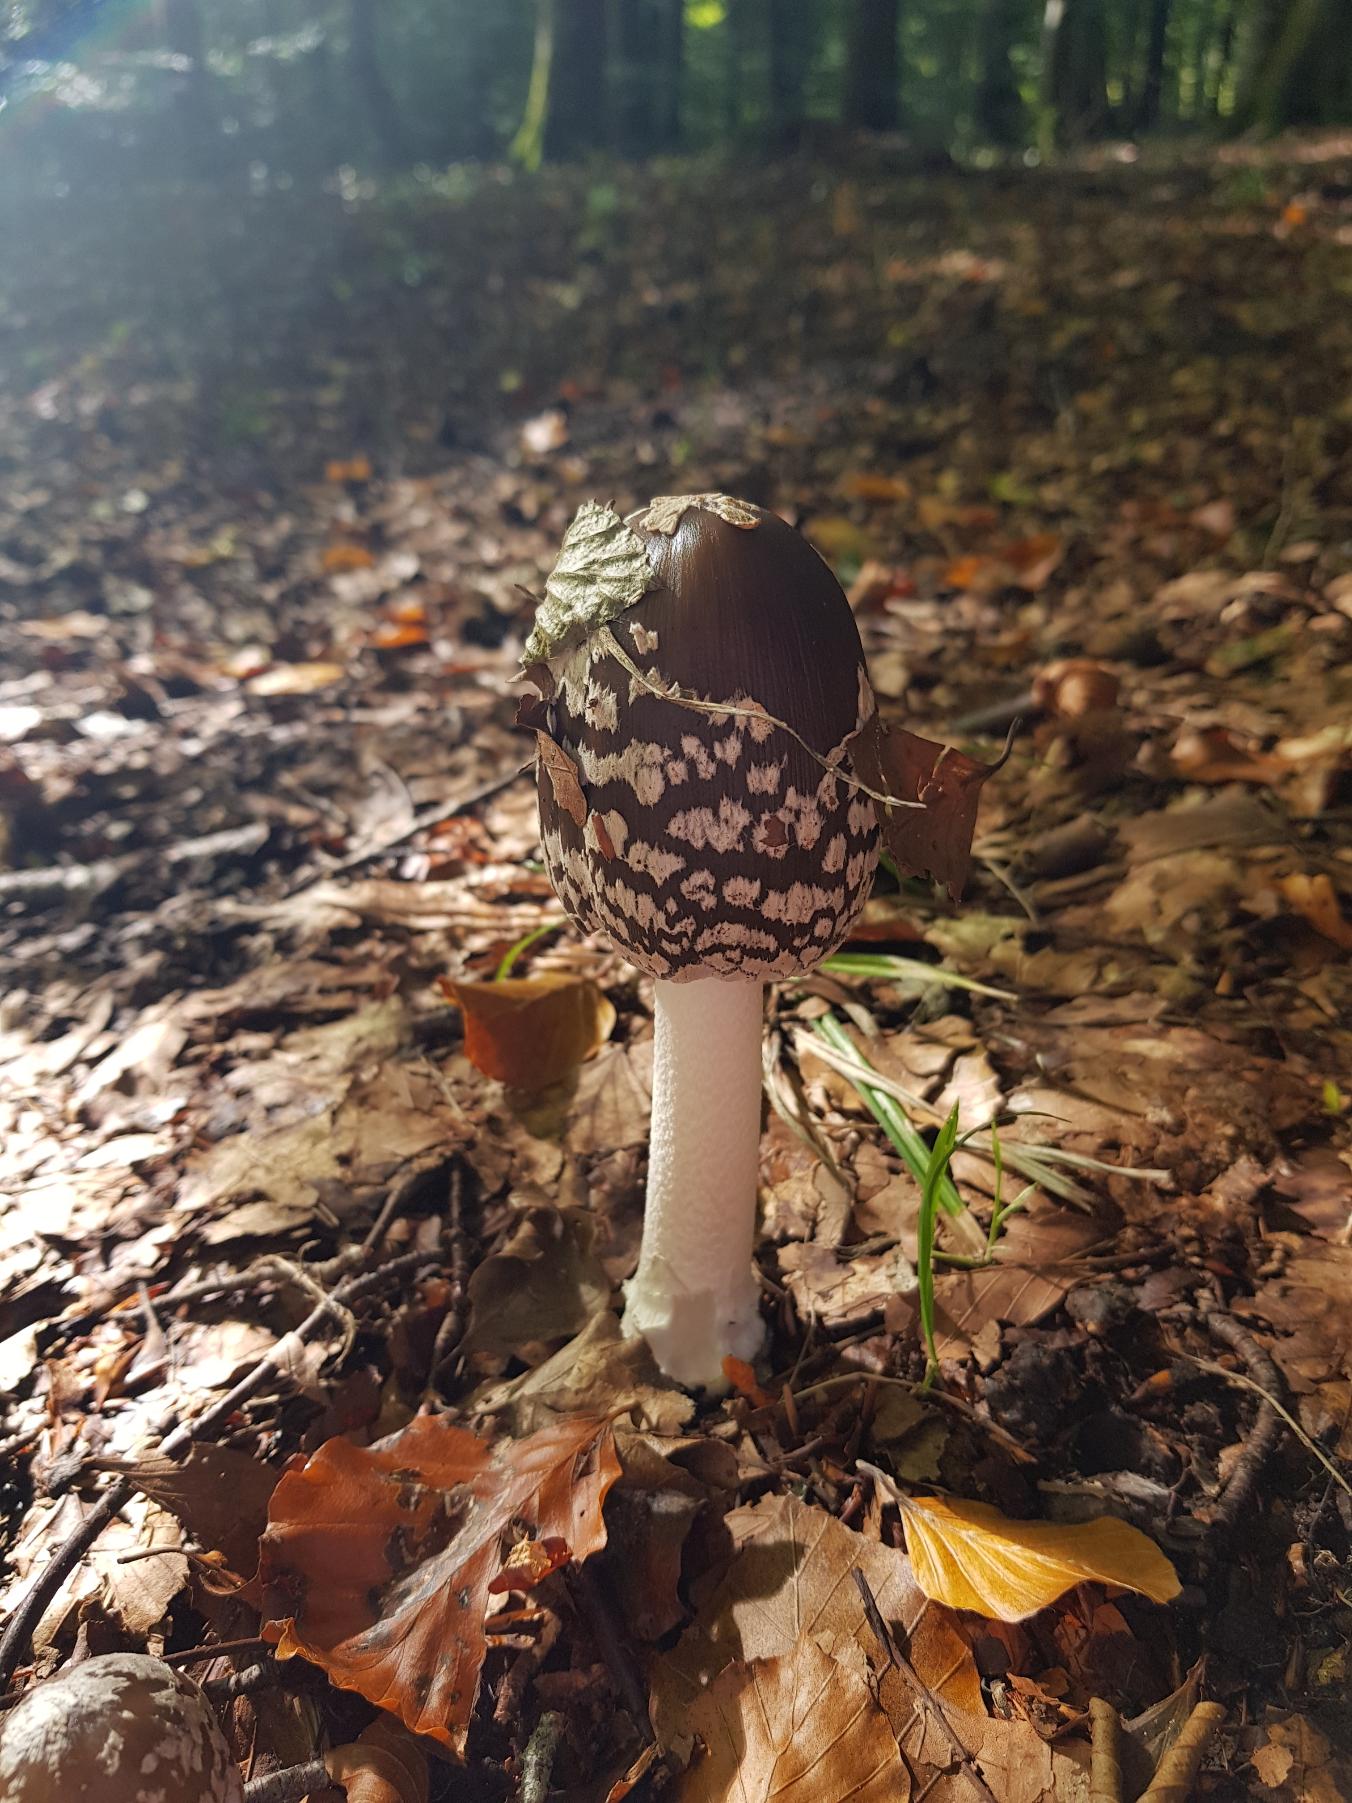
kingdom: Fungi
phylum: Basidiomycota
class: Agaricomycetes
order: Agaricales
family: Psathyrellaceae
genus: Coprinopsis
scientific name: Coprinopsis picacea
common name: Skade-blækhat
